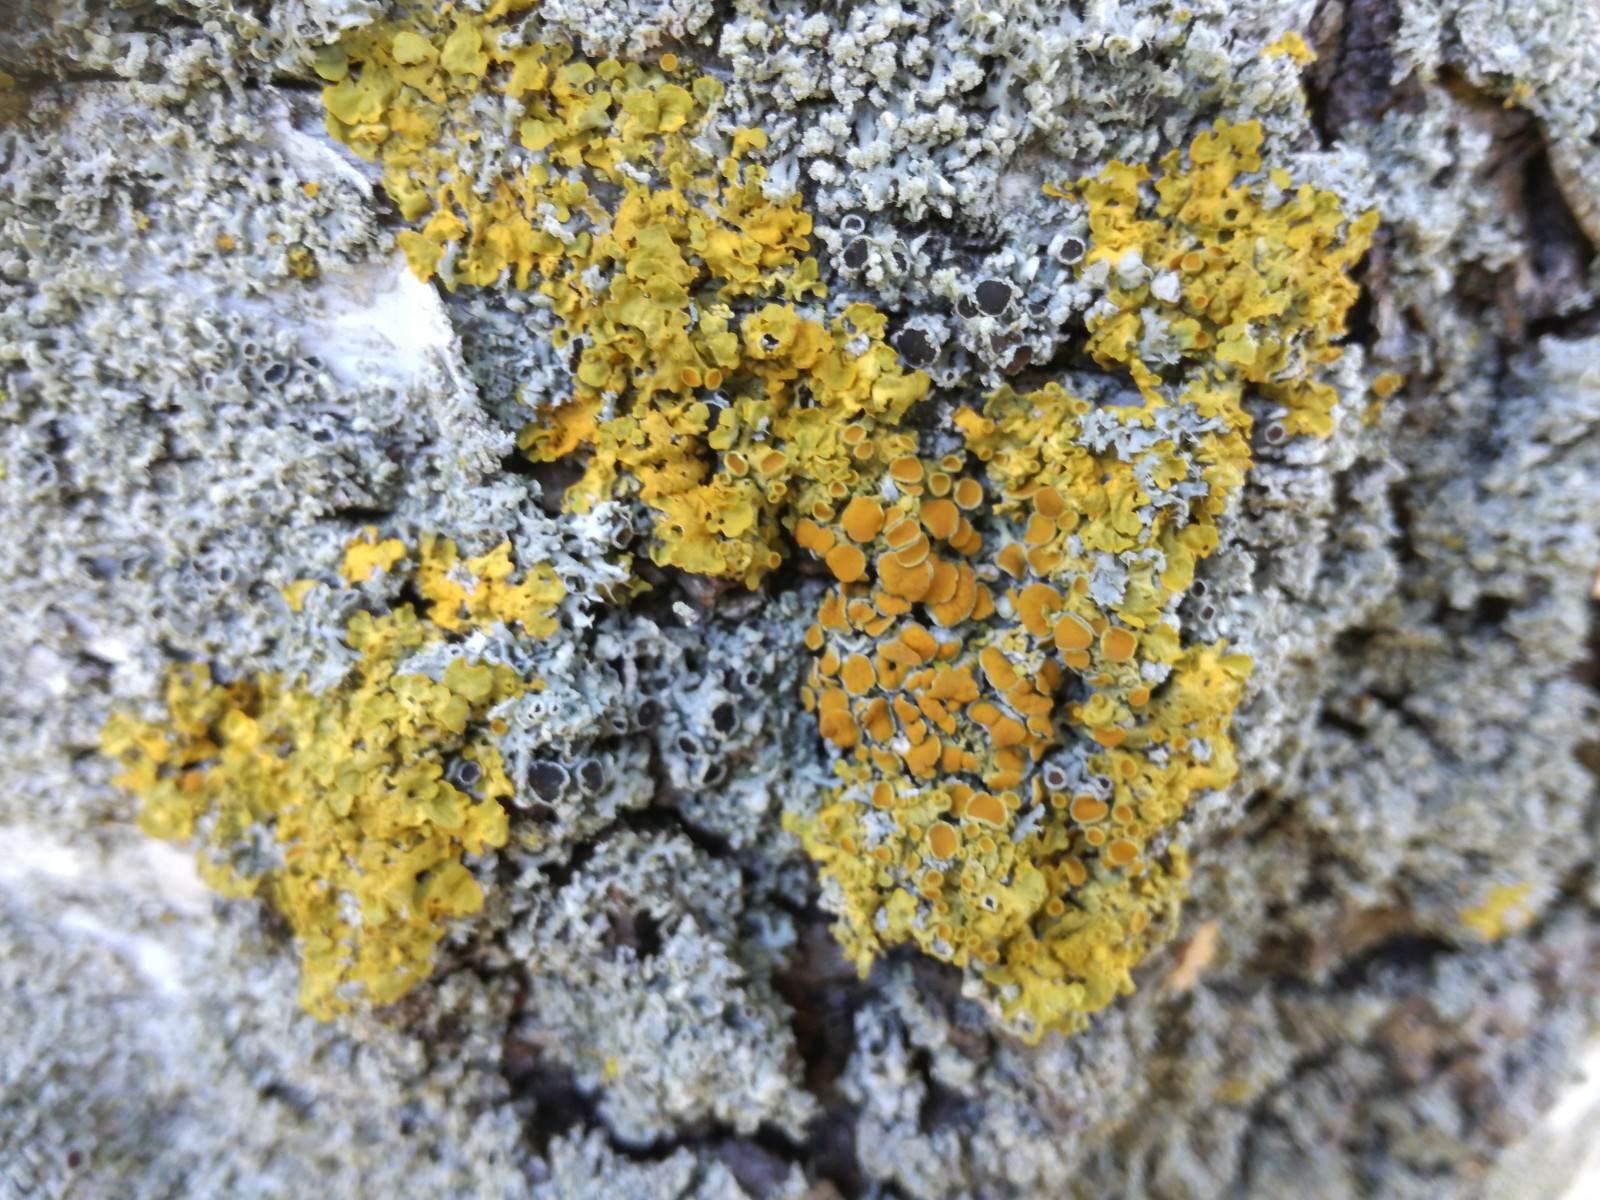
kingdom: Fungi
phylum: Ascomycota
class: Lecanoromycetes
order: Teloschistales
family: Teloschistaceae
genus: Xanthoria
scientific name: Xanthoria parietina
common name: almindelig væggelav
